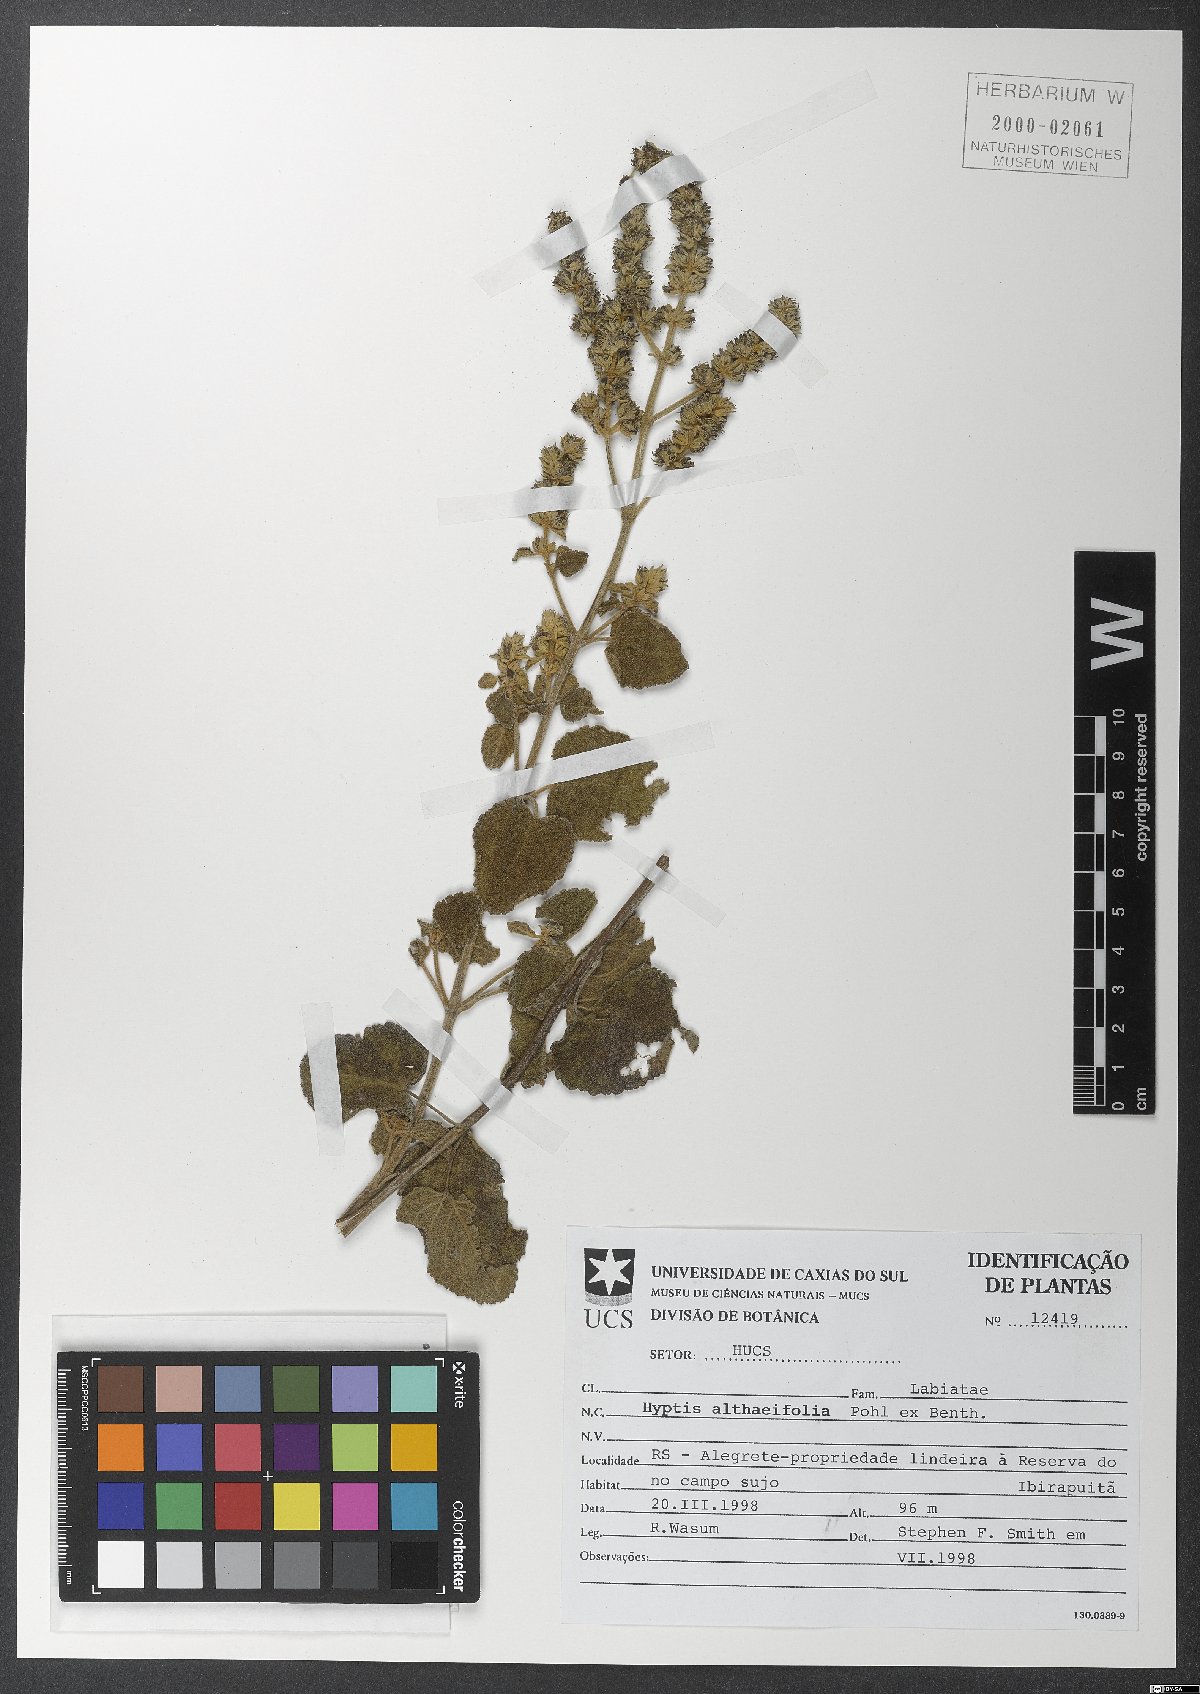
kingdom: Plantae
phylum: Tracheophyta
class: Magnoliopsida
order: Lamiales
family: Lamiaceae
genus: Cantinoa
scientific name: Cantinoa althaeifolia
